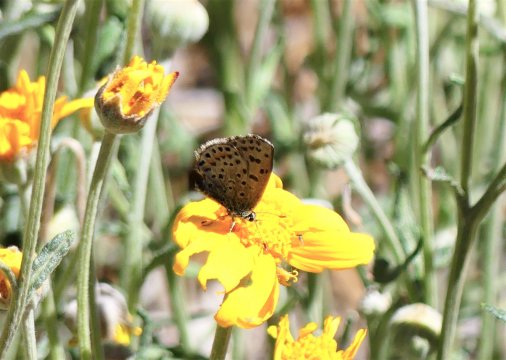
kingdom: Animalia
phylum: Arthropoda
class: Insecta
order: Lepidoptera
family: Lycaenidae
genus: Euphilotes
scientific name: Euphilotes battoides
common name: Glaucon Blue
